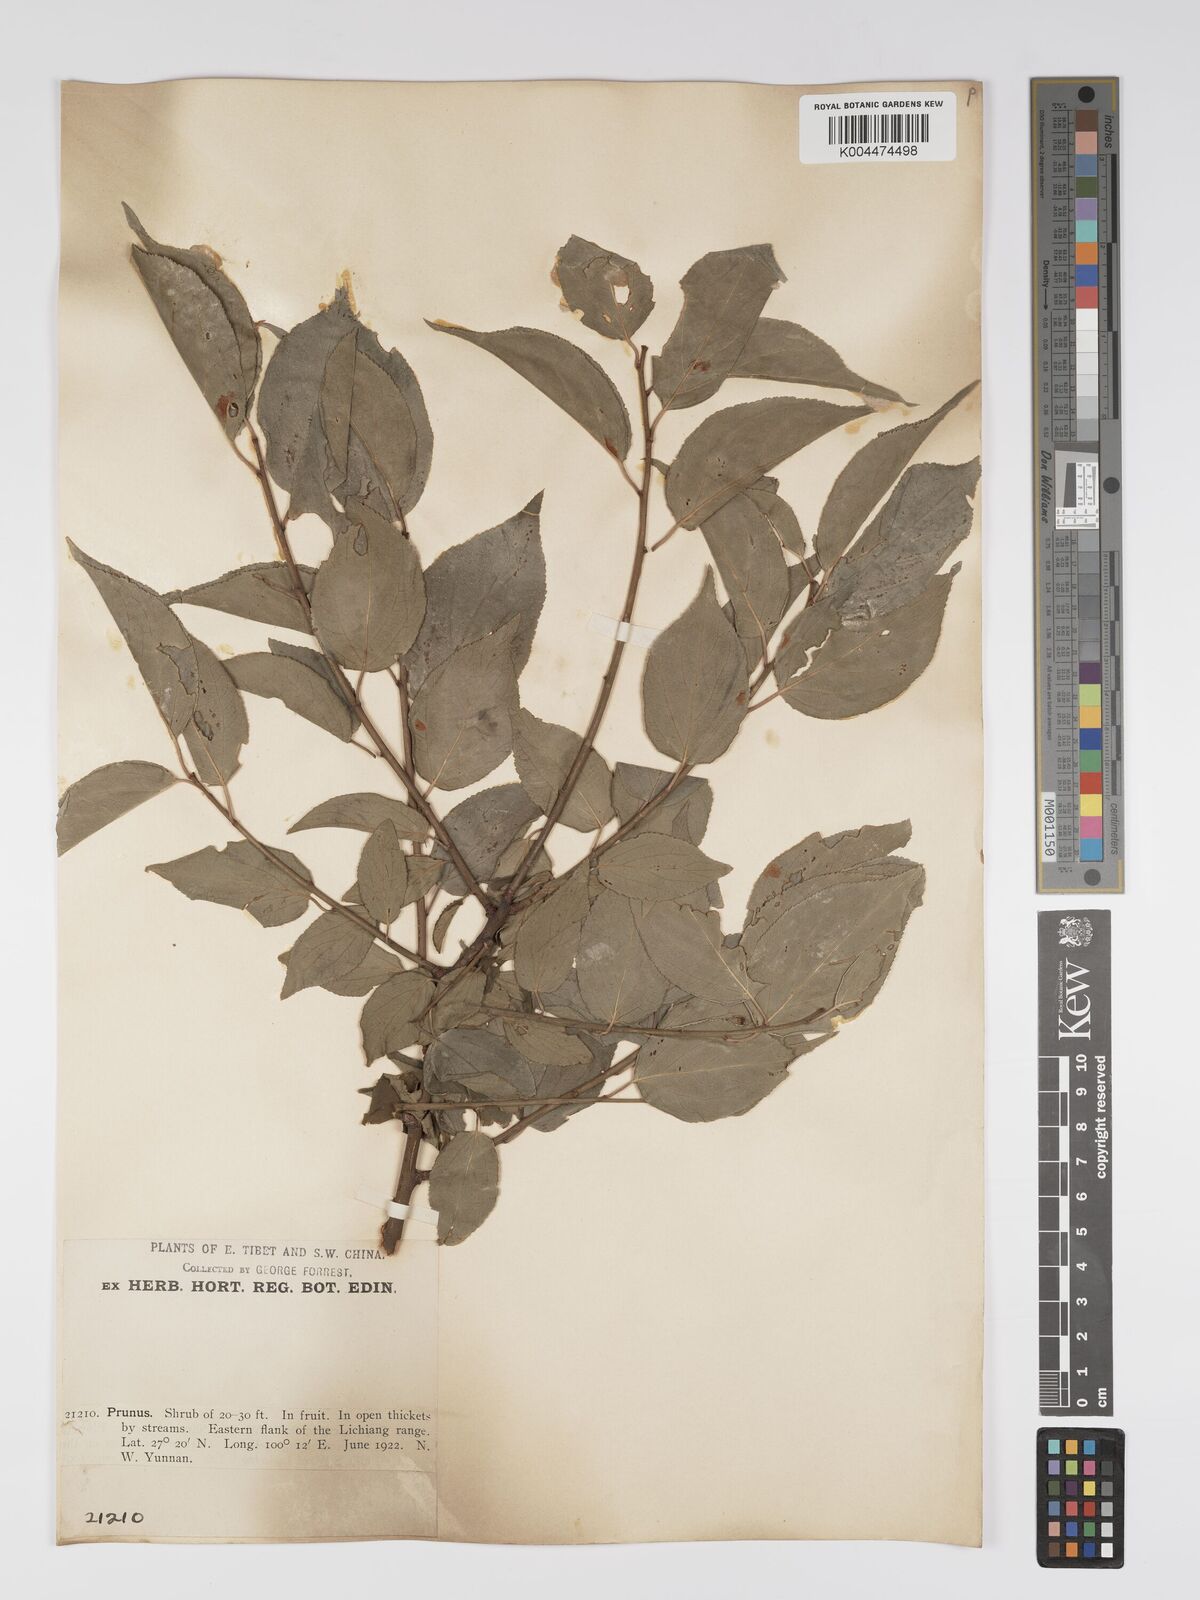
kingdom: Plantae
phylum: Tracheophyta
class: Magnoliopsida
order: Rosales
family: Rosaceae
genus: Prunus
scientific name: Prunus
